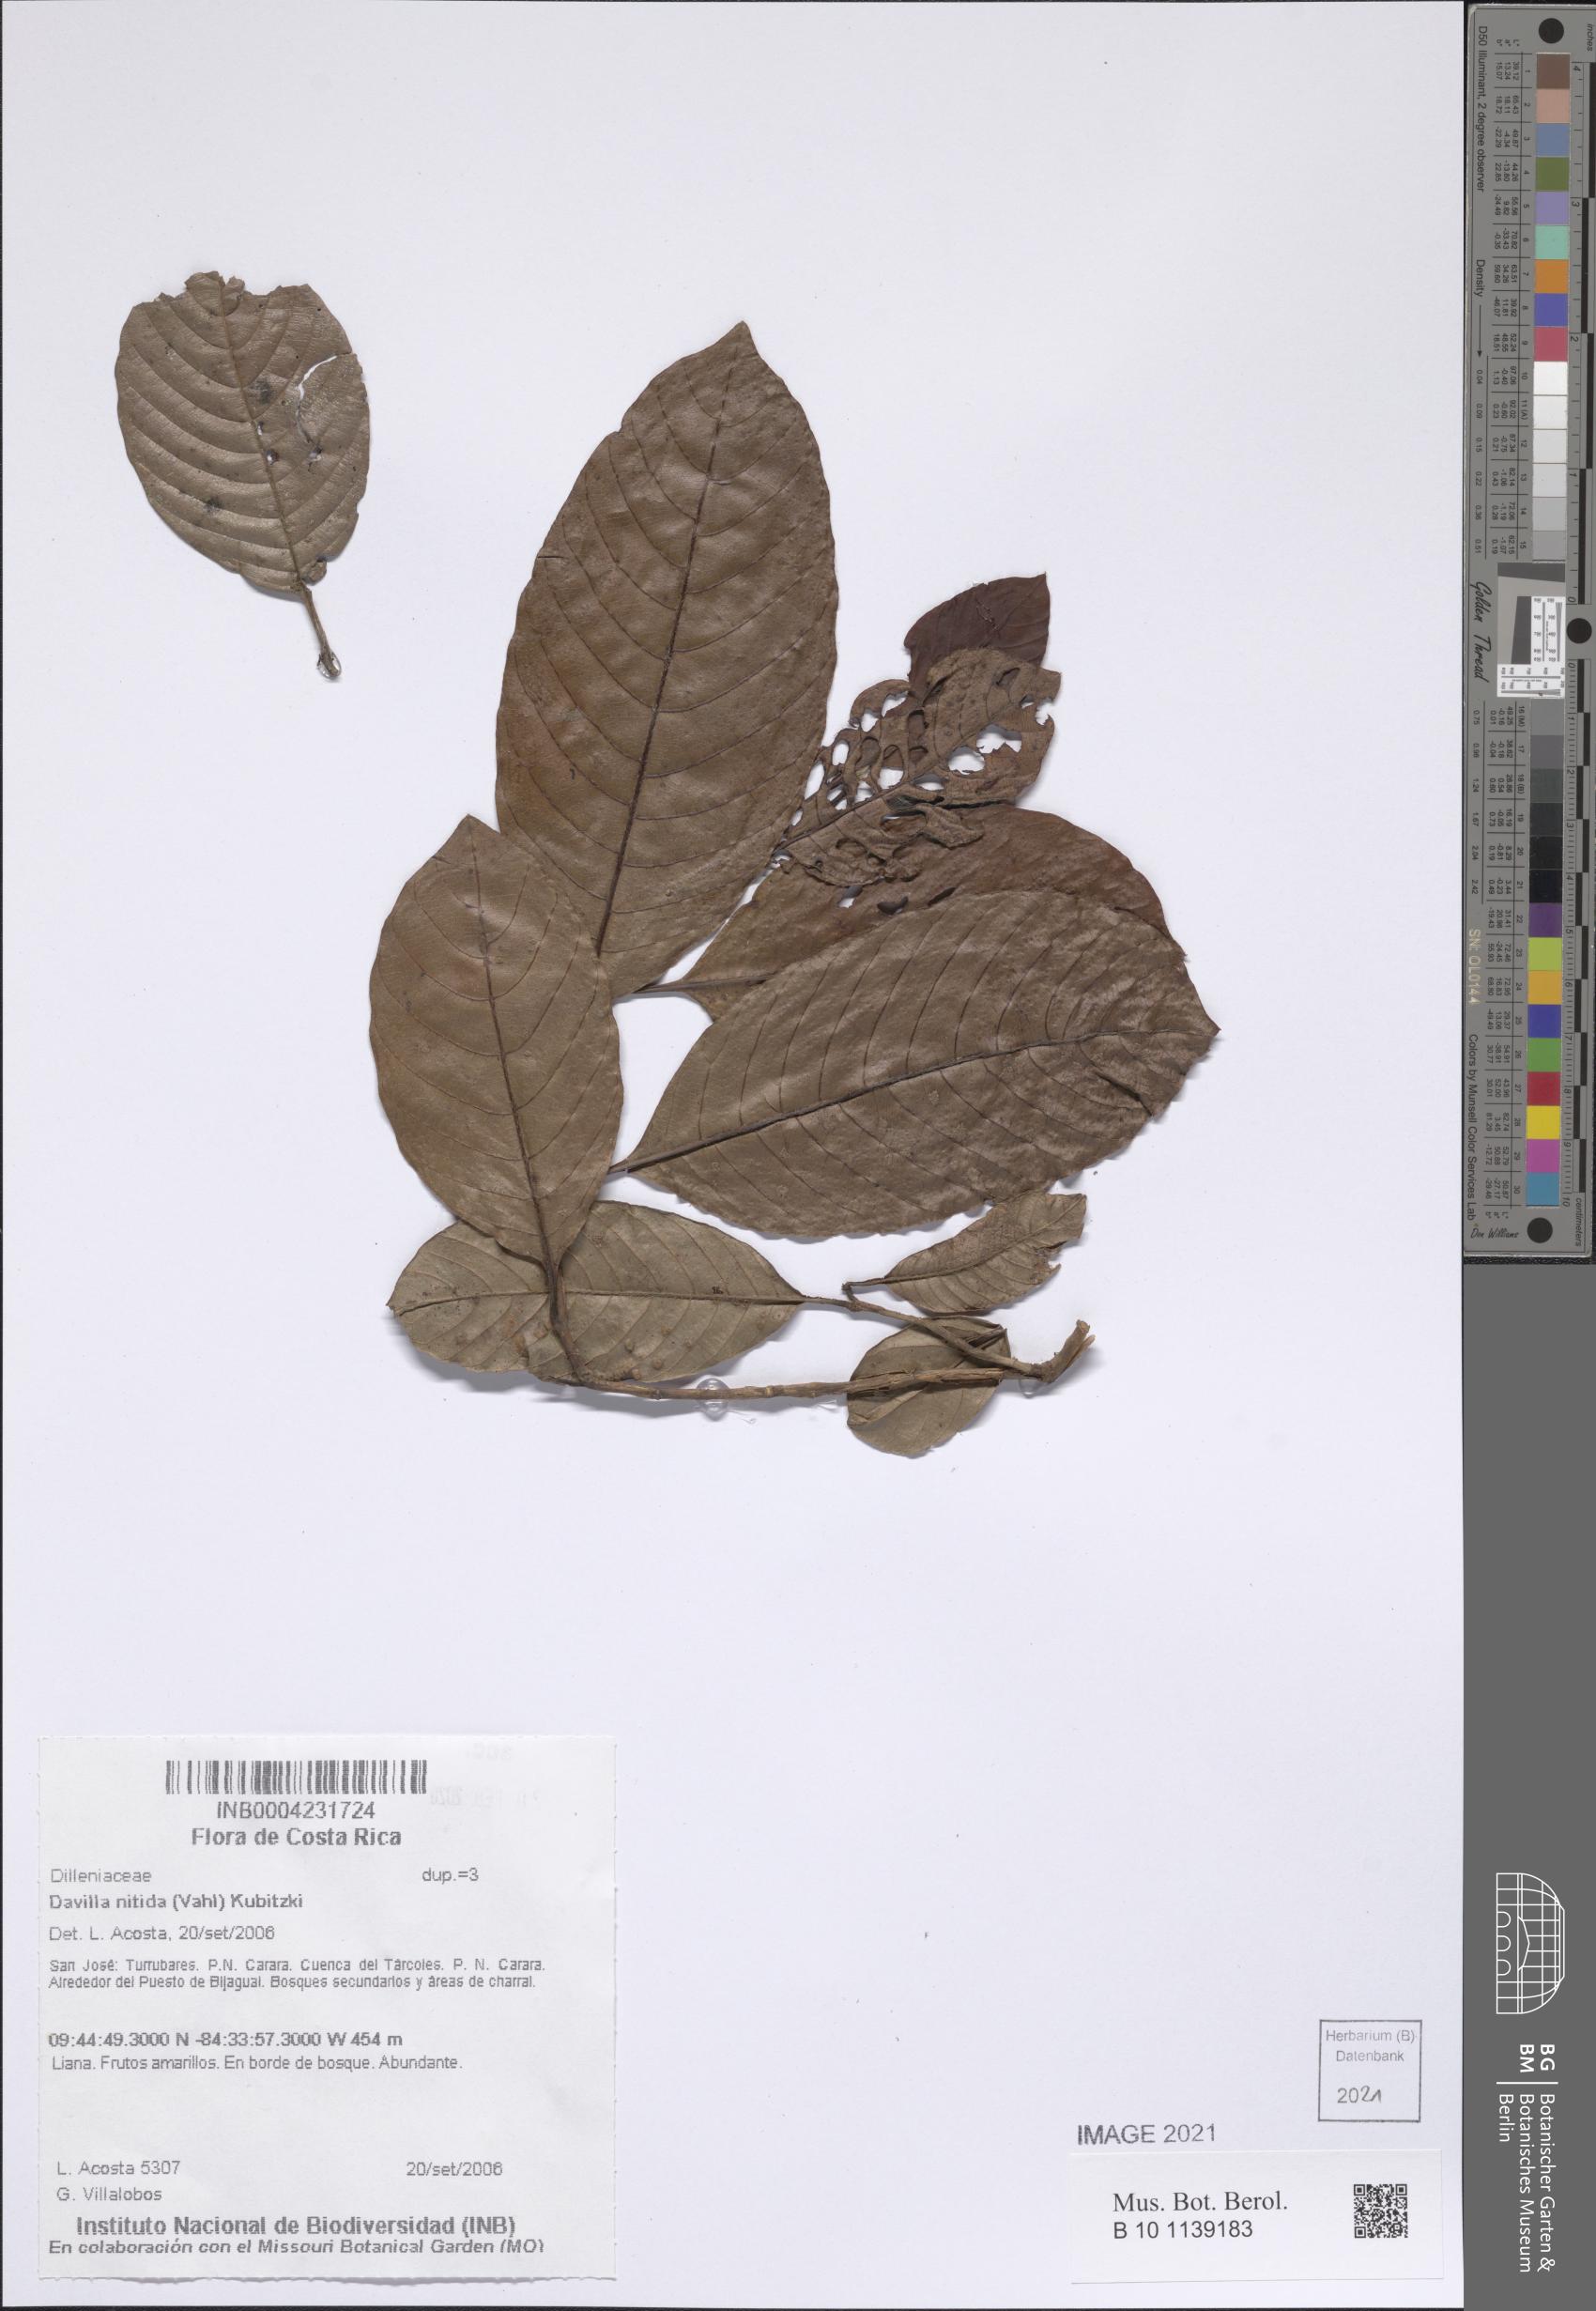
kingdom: Plantae
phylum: Tracheophyta
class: Magnoliopsida
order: Dilleniales
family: Dilleniaceae
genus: Davilla
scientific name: Davilla nitida
